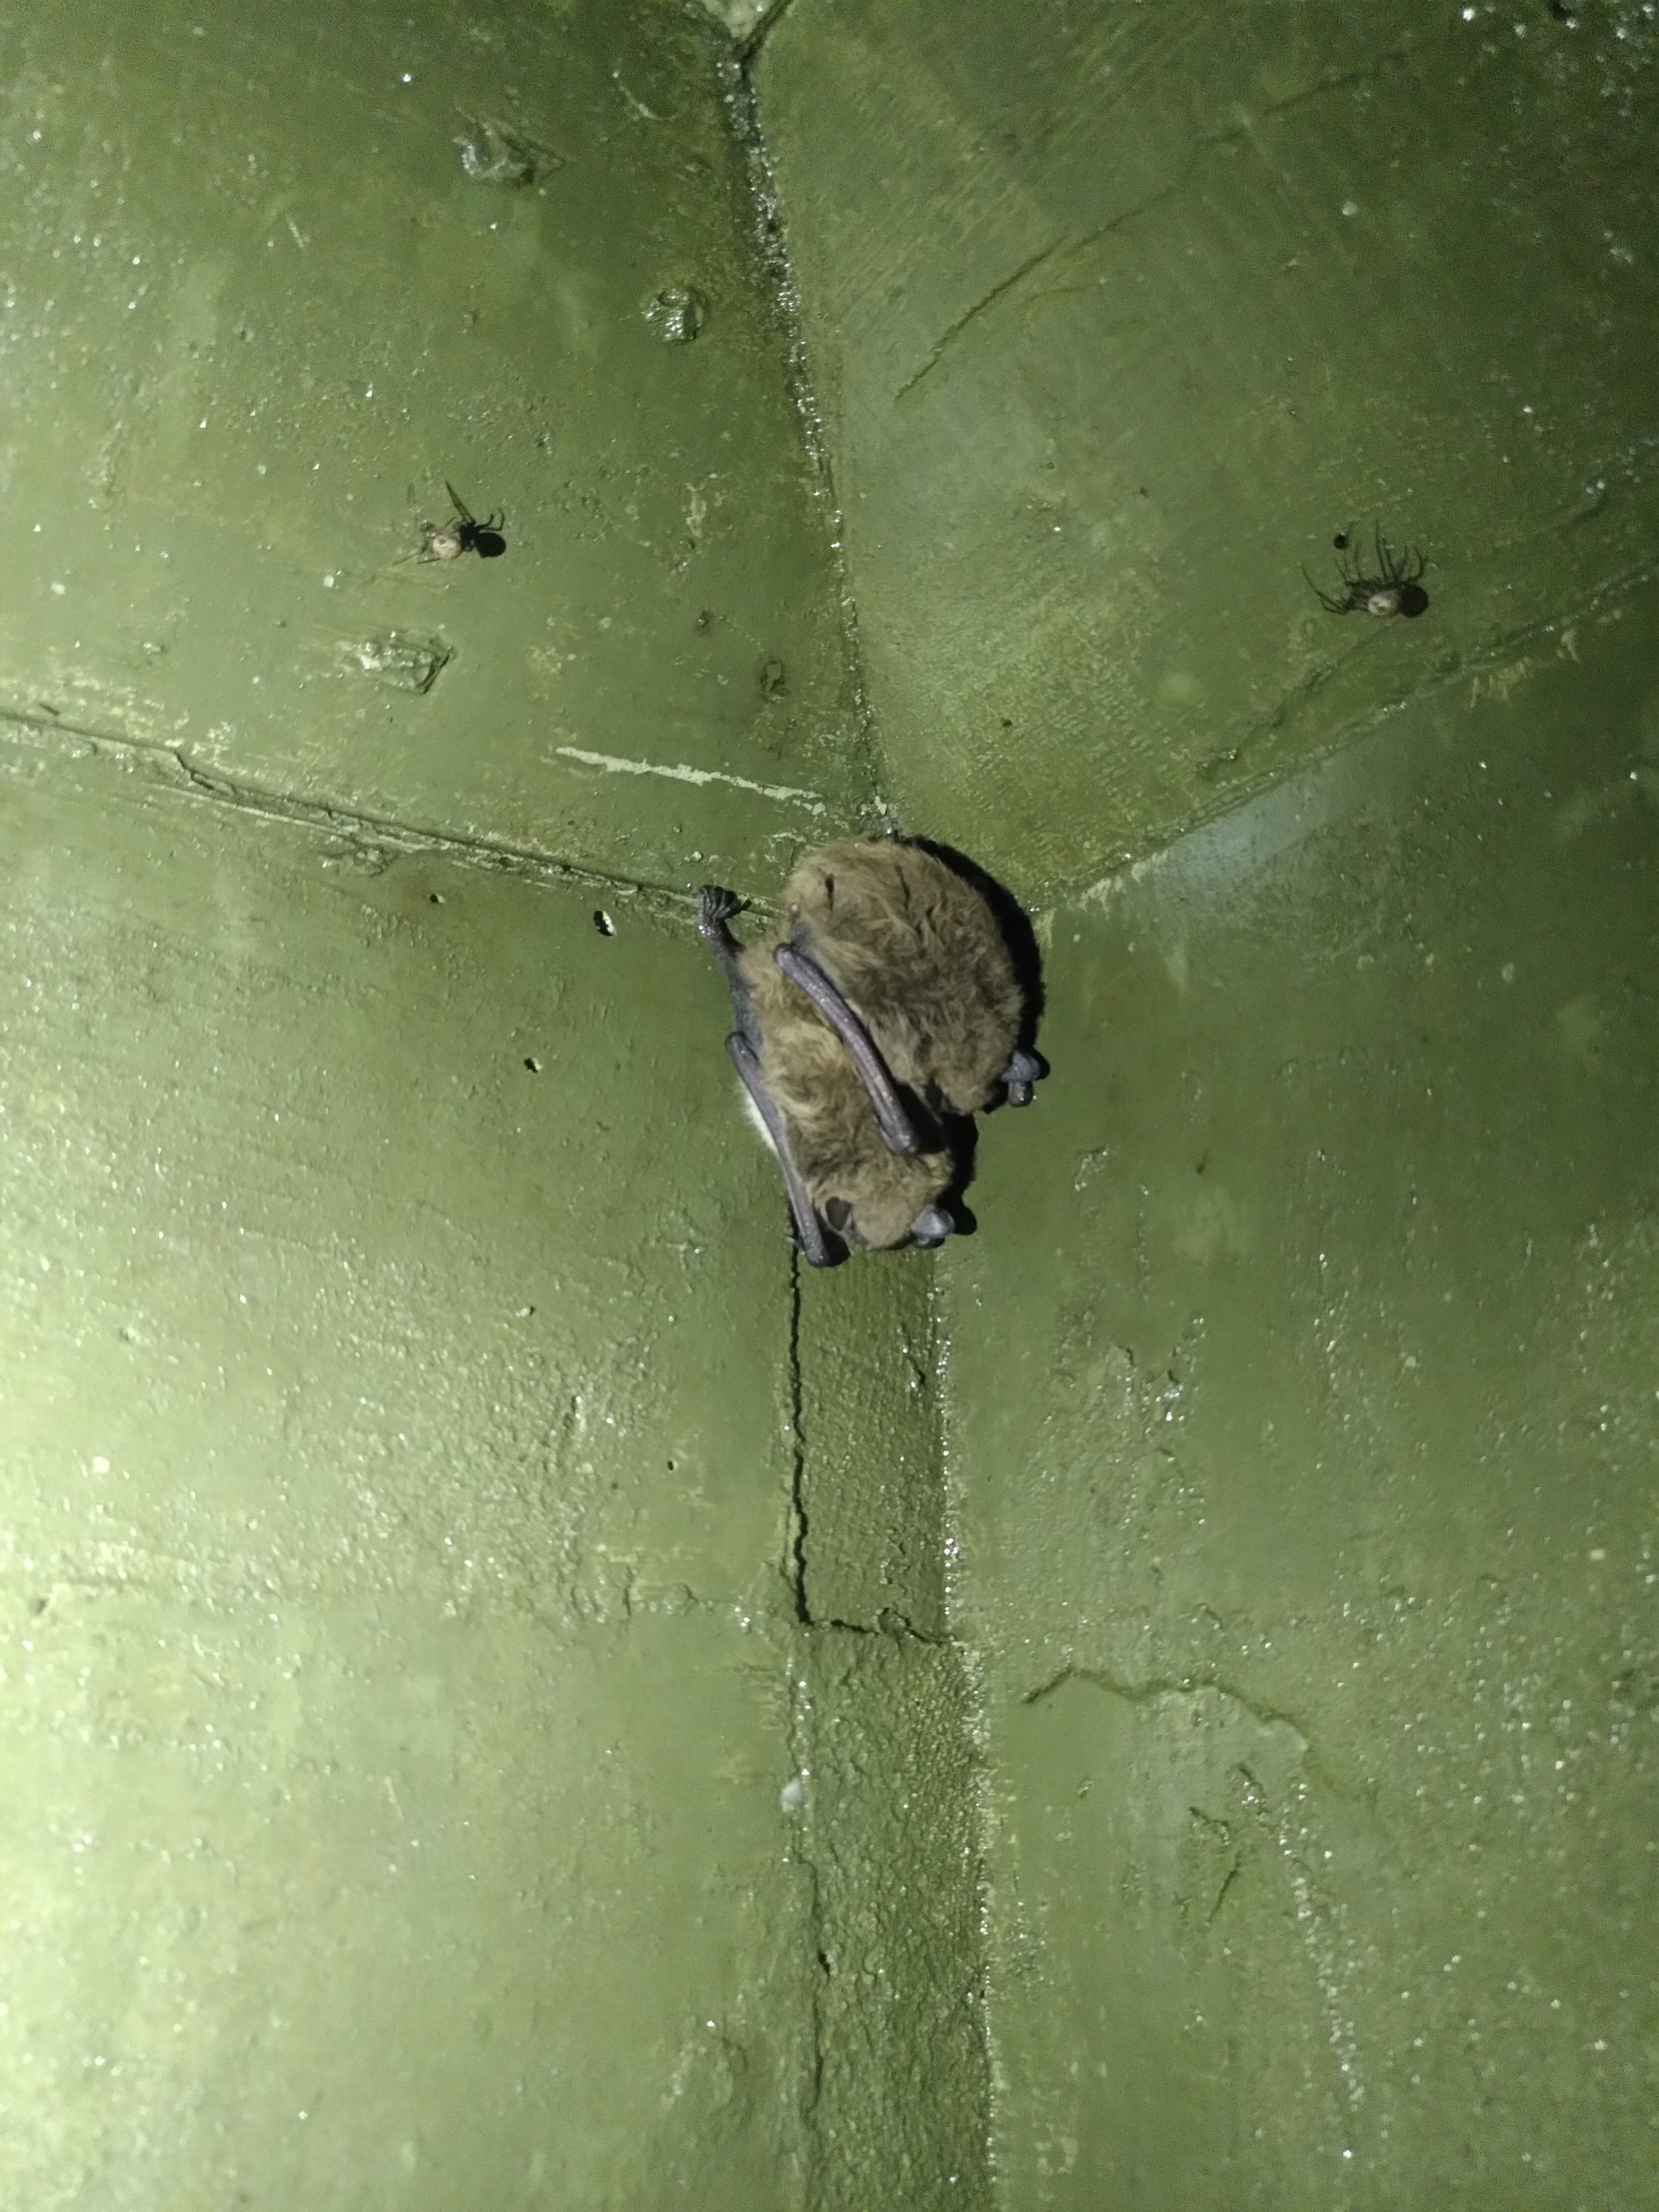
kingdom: Animalia
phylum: Chordata
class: Mammalia
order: Chiroptera
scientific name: Chiroptera
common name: Flagermus
